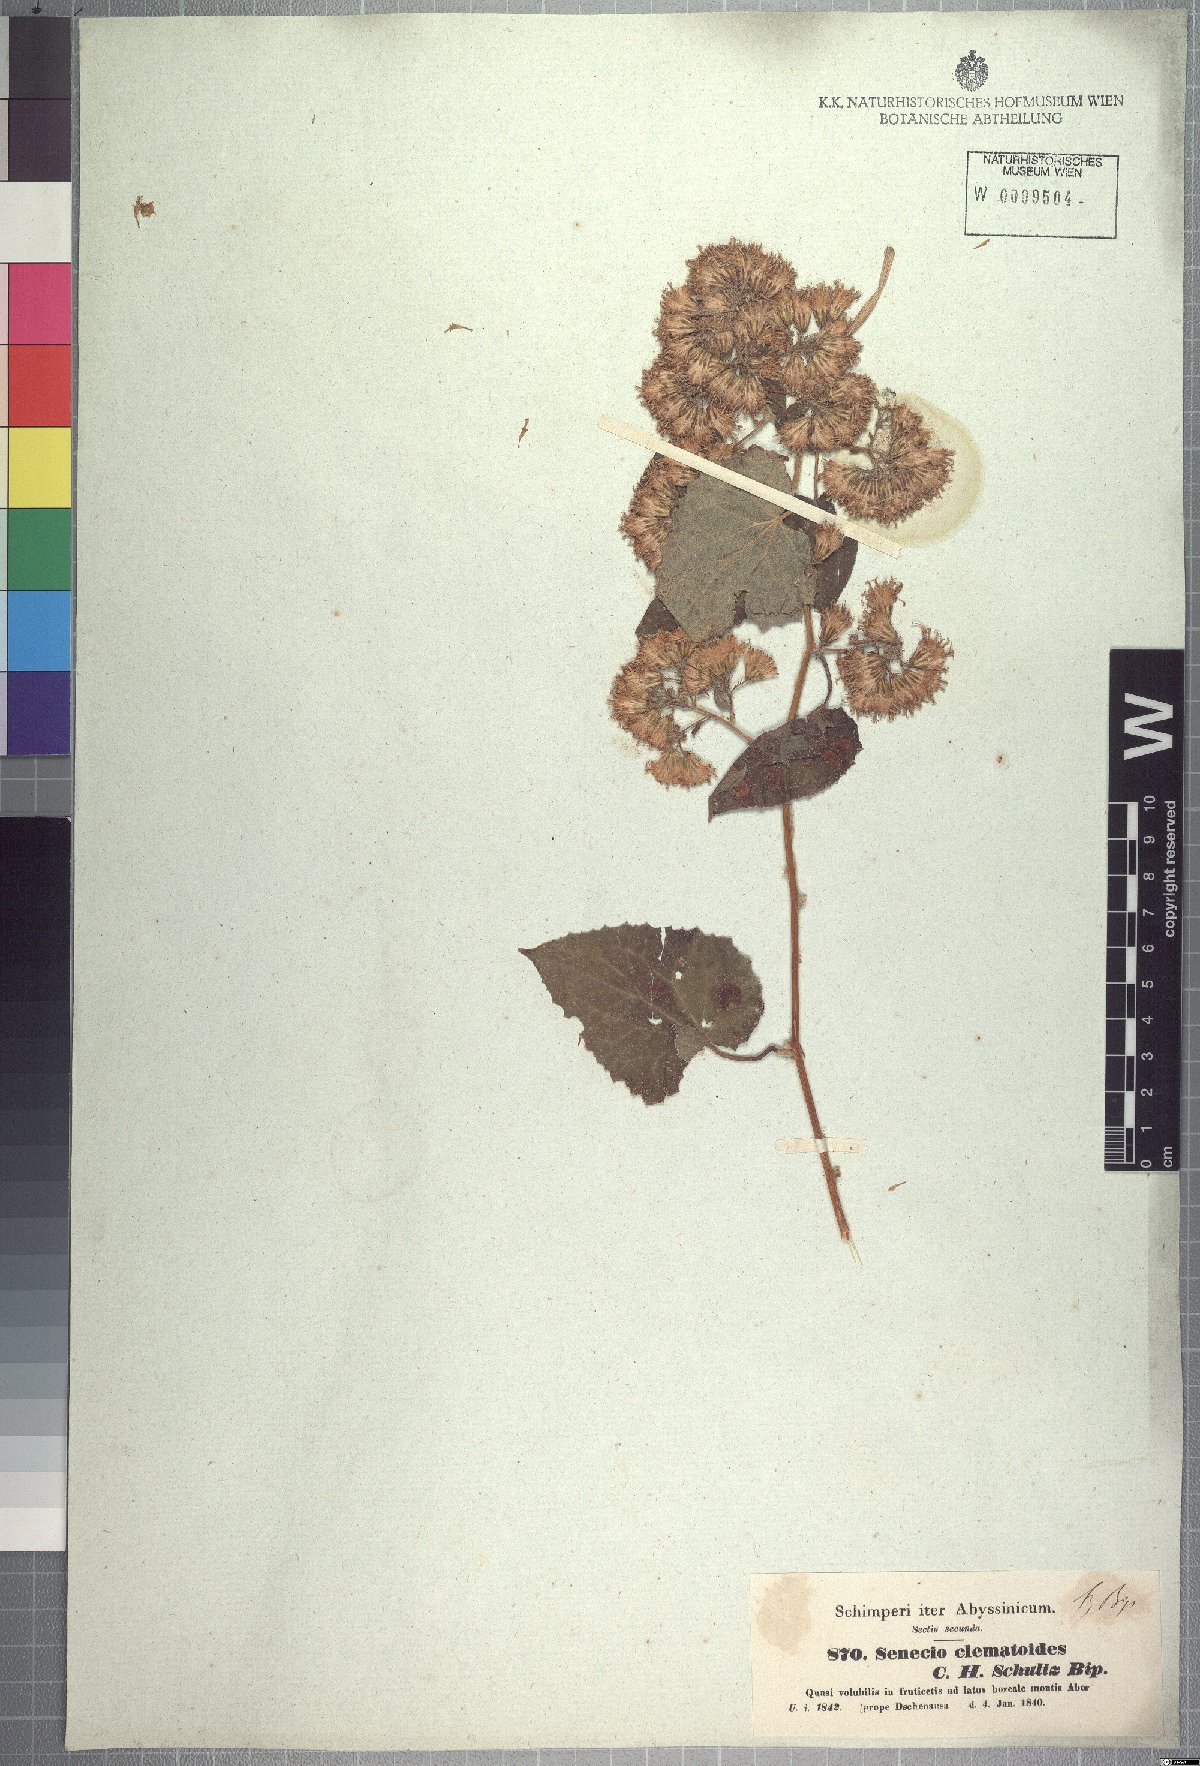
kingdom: Plantae
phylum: Tracheophyta
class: Magnoliopsida
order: Asterales
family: Asteraceae
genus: Mikaniopsis
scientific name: Mikaniopsis clematoides
